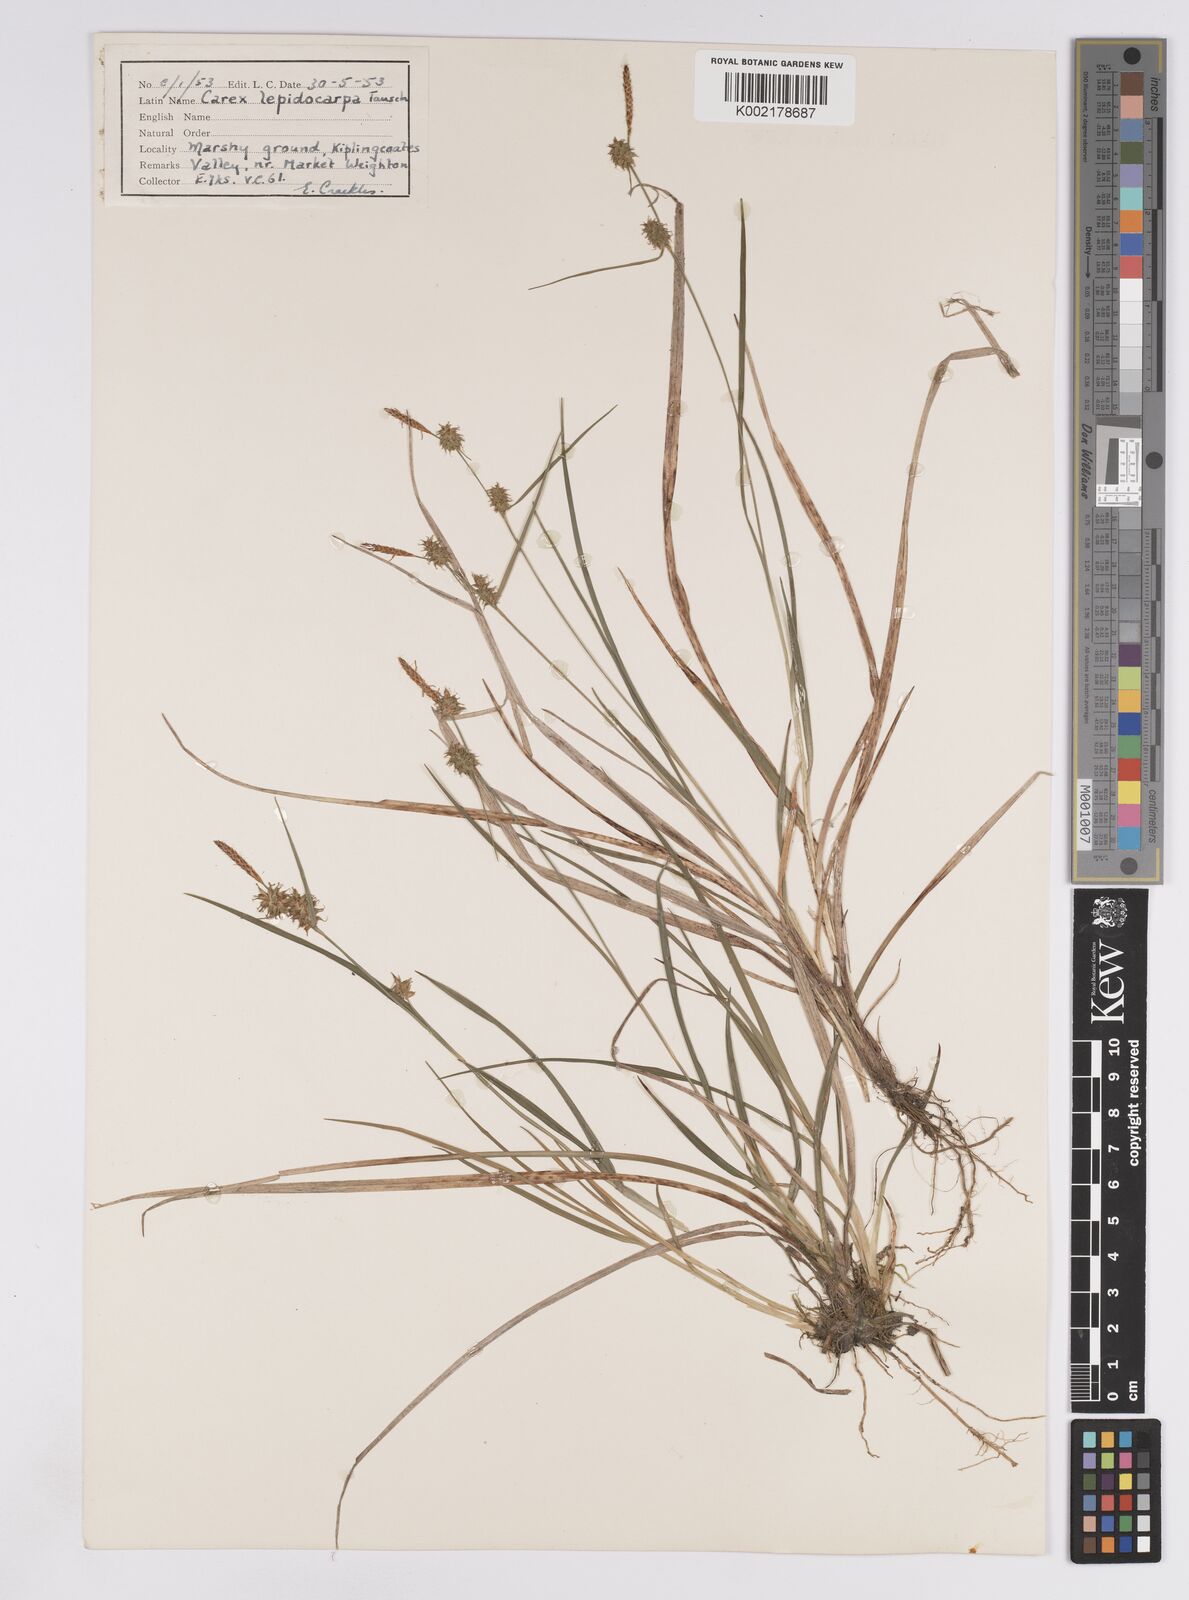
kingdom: Plantae
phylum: Tracheophyta
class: Liliopsida
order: Poales
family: Cyperaceae
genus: Carex
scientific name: Carex lepidocarpa
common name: Long-stalked yellow-sedge
